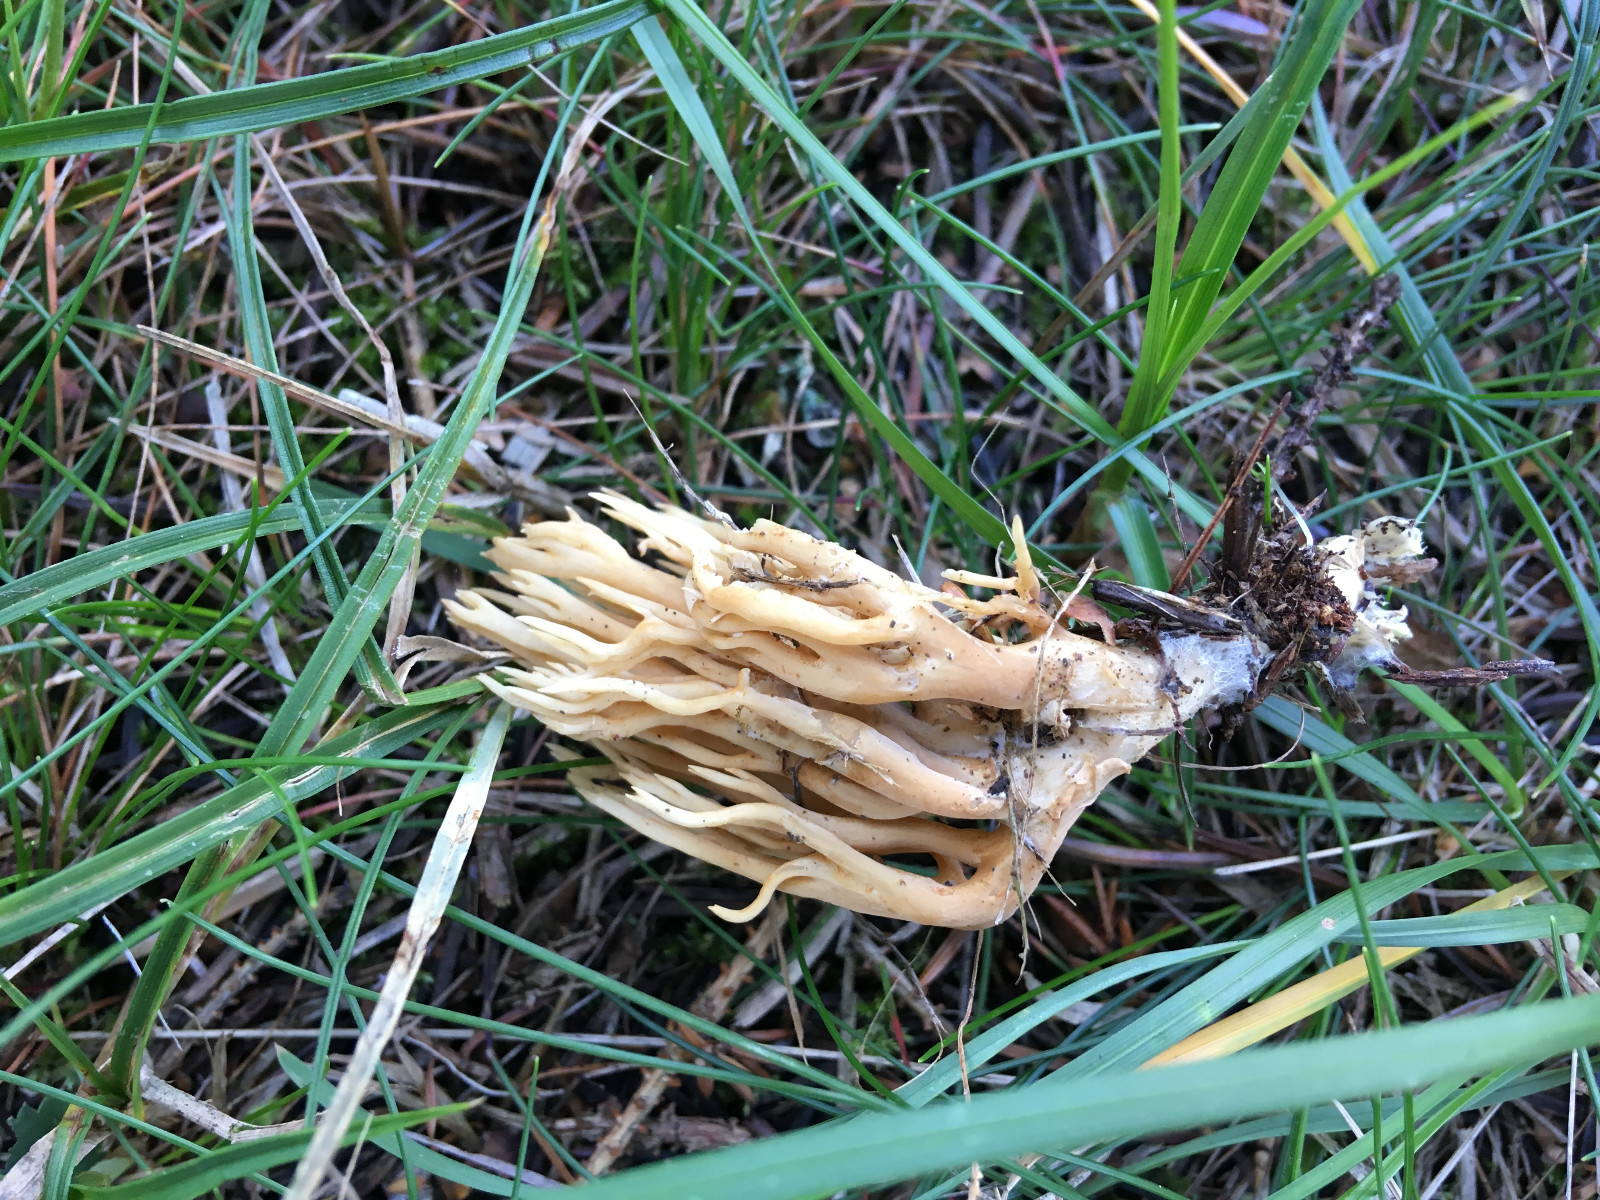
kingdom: Fungi
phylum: Basidiomycota
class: Agaricomycetes
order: Gomphales
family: Gomphaceae
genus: Phaeoclavulina
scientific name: Phaeoclavulina eumorpha
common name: gran-koralsvamp
